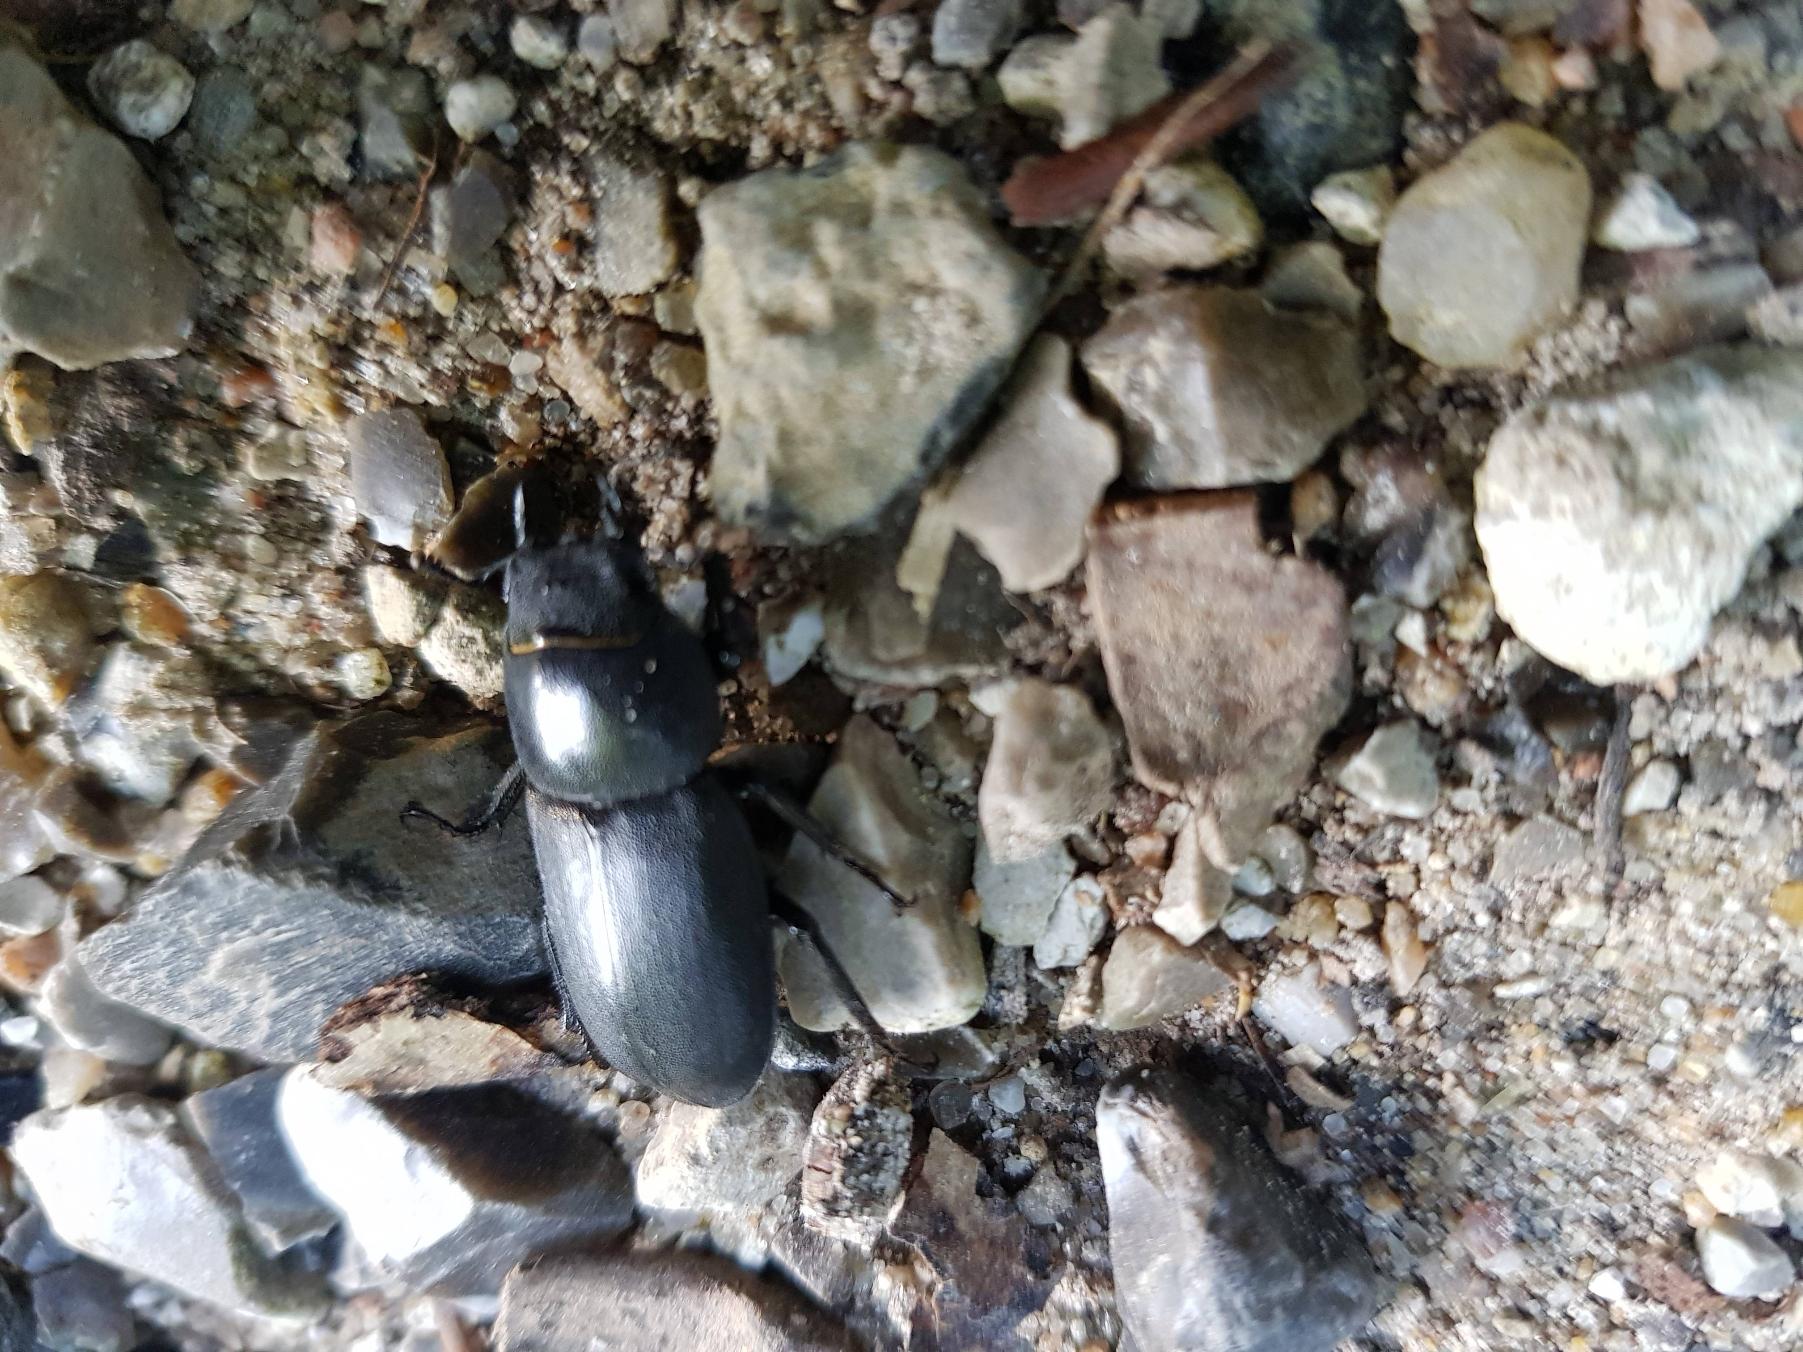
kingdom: Animalia
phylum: Arthropoda
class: Insecta
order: Coleoptera
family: Lucanidae
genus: Dorcus
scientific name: Dorcus parallelipipedus
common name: Bøghjort
